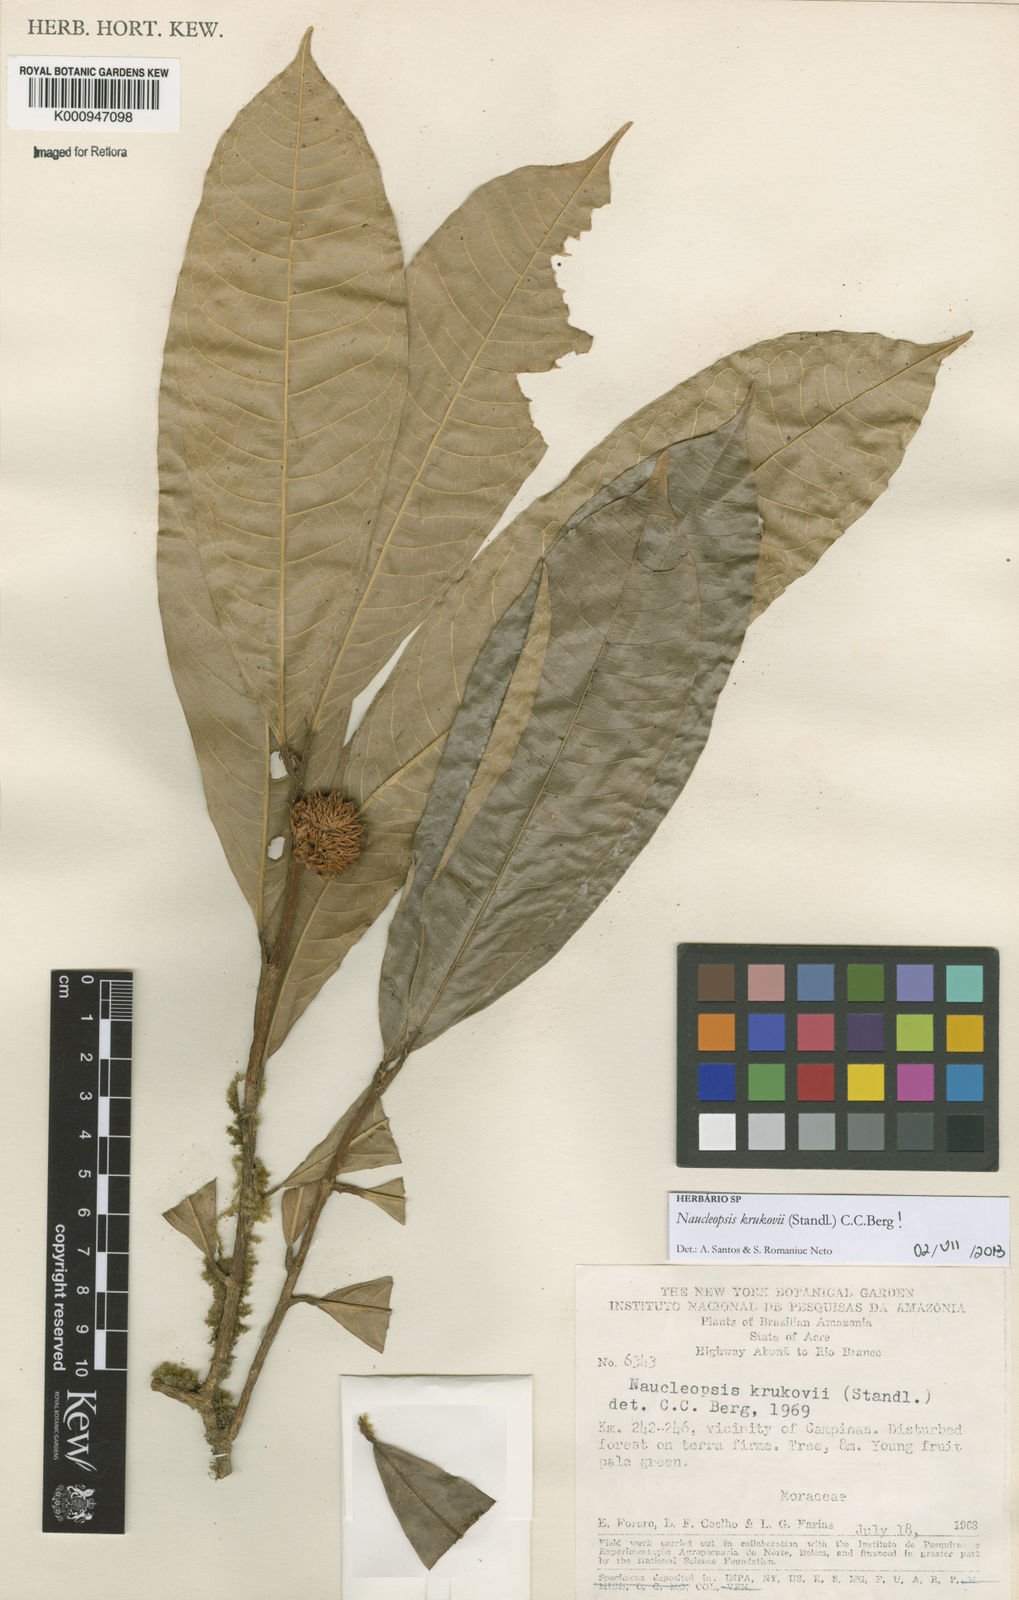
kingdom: Plantae
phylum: Tracheophyta
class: Magnoliopsida
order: Rosales
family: Moraceae
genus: Naucleopsis
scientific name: Naucleopsis krukovii
